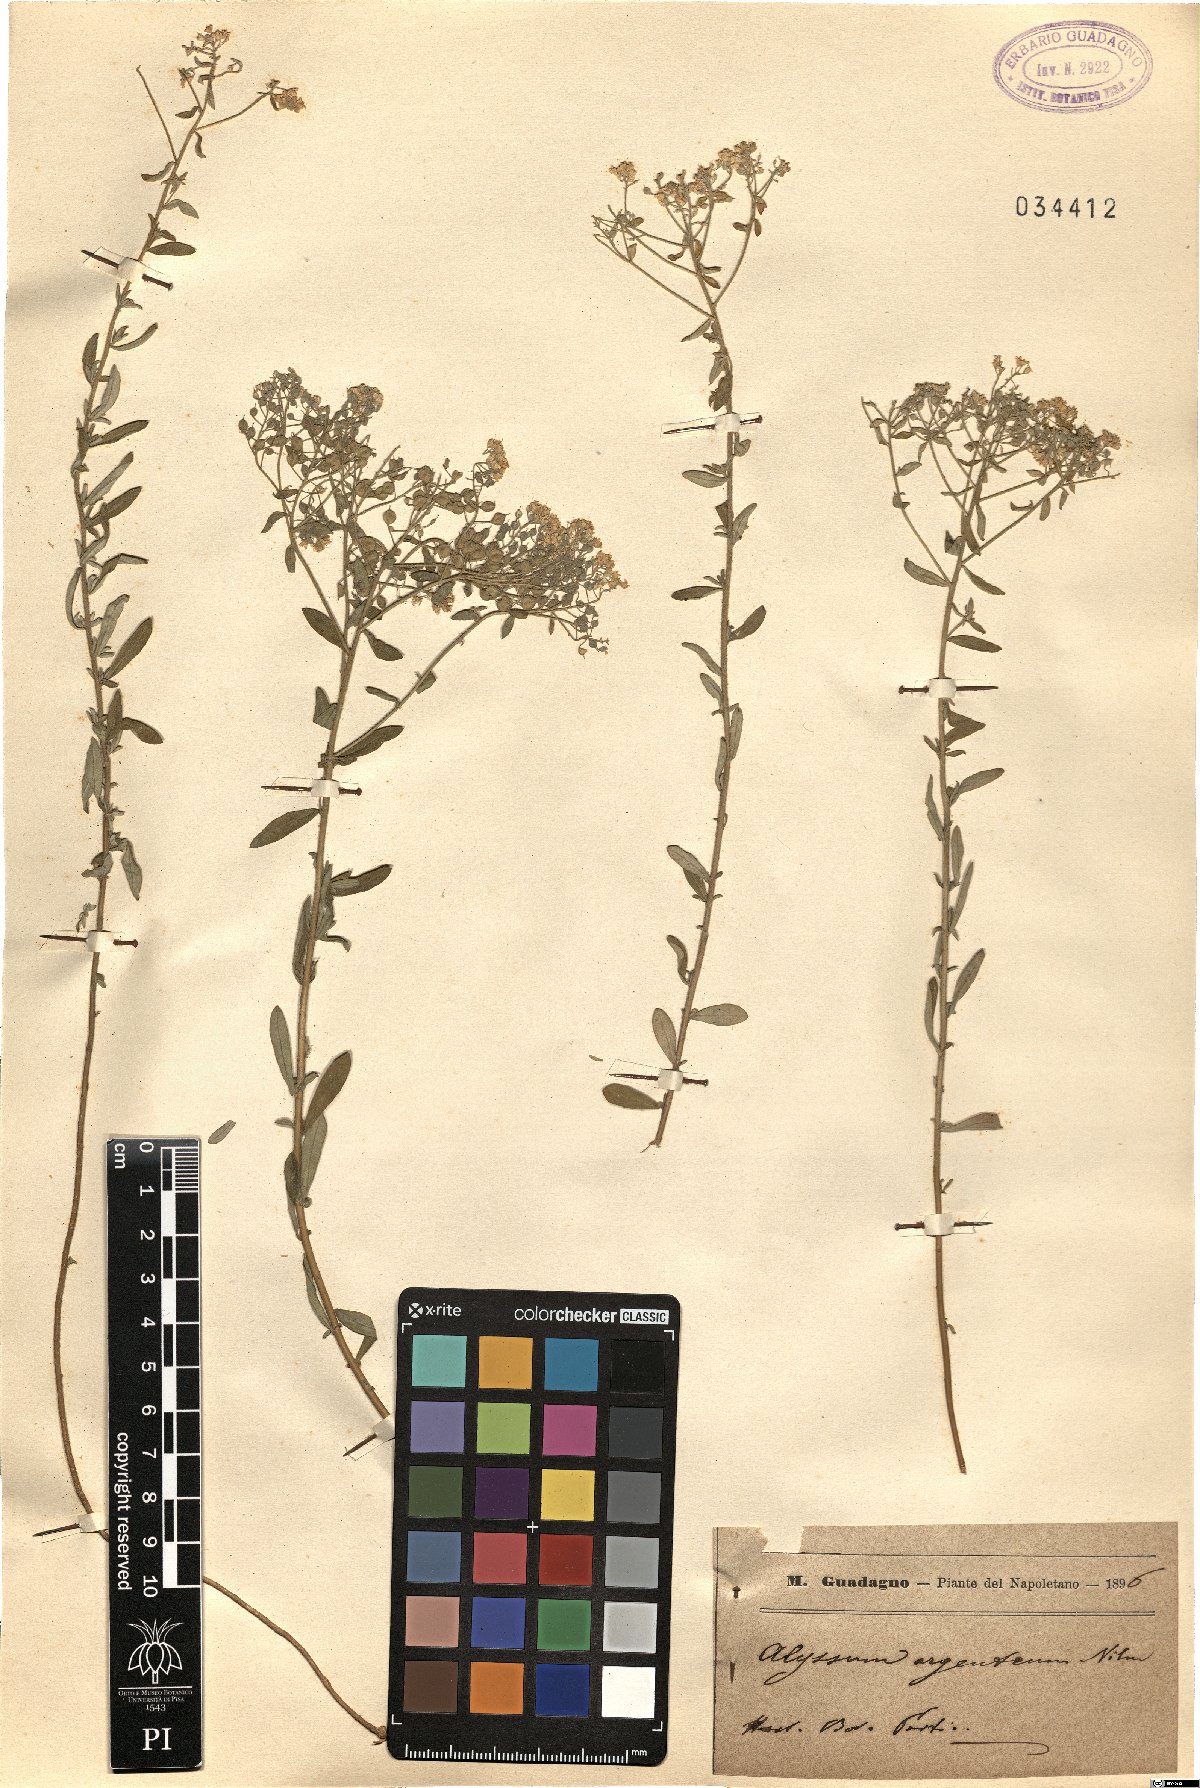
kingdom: Plantae
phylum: Tracheophyta
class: Magnoliopsida
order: Brassicales
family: Brassicaceae
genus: Odontarrhena
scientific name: Odontarrhena argentea
